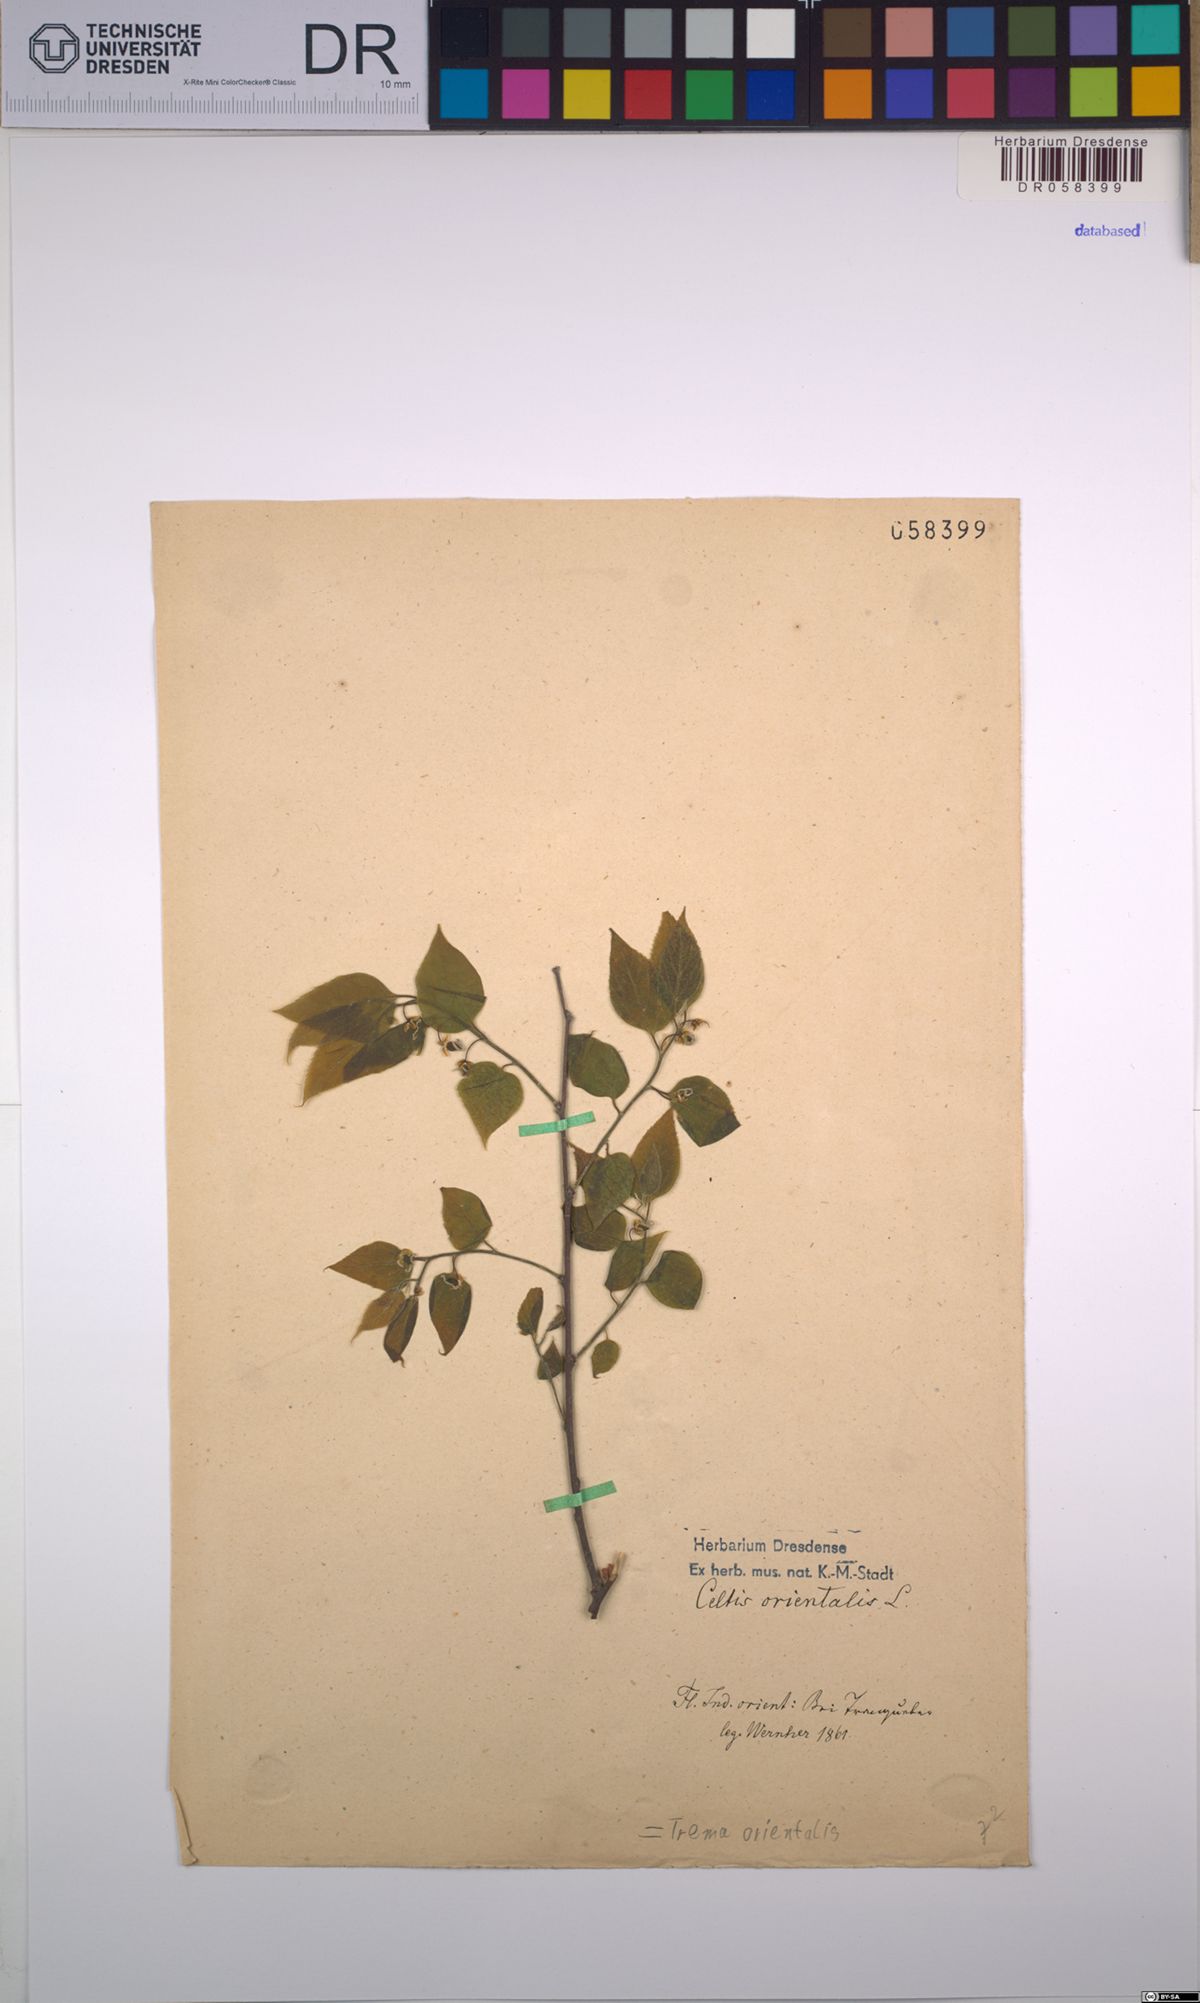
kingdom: Plantae
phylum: Tracheophyta
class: Magnoliopsida
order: Rosales
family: Cannabaceae
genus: Trema
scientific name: Trema orientale
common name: Indian charcoal tree
